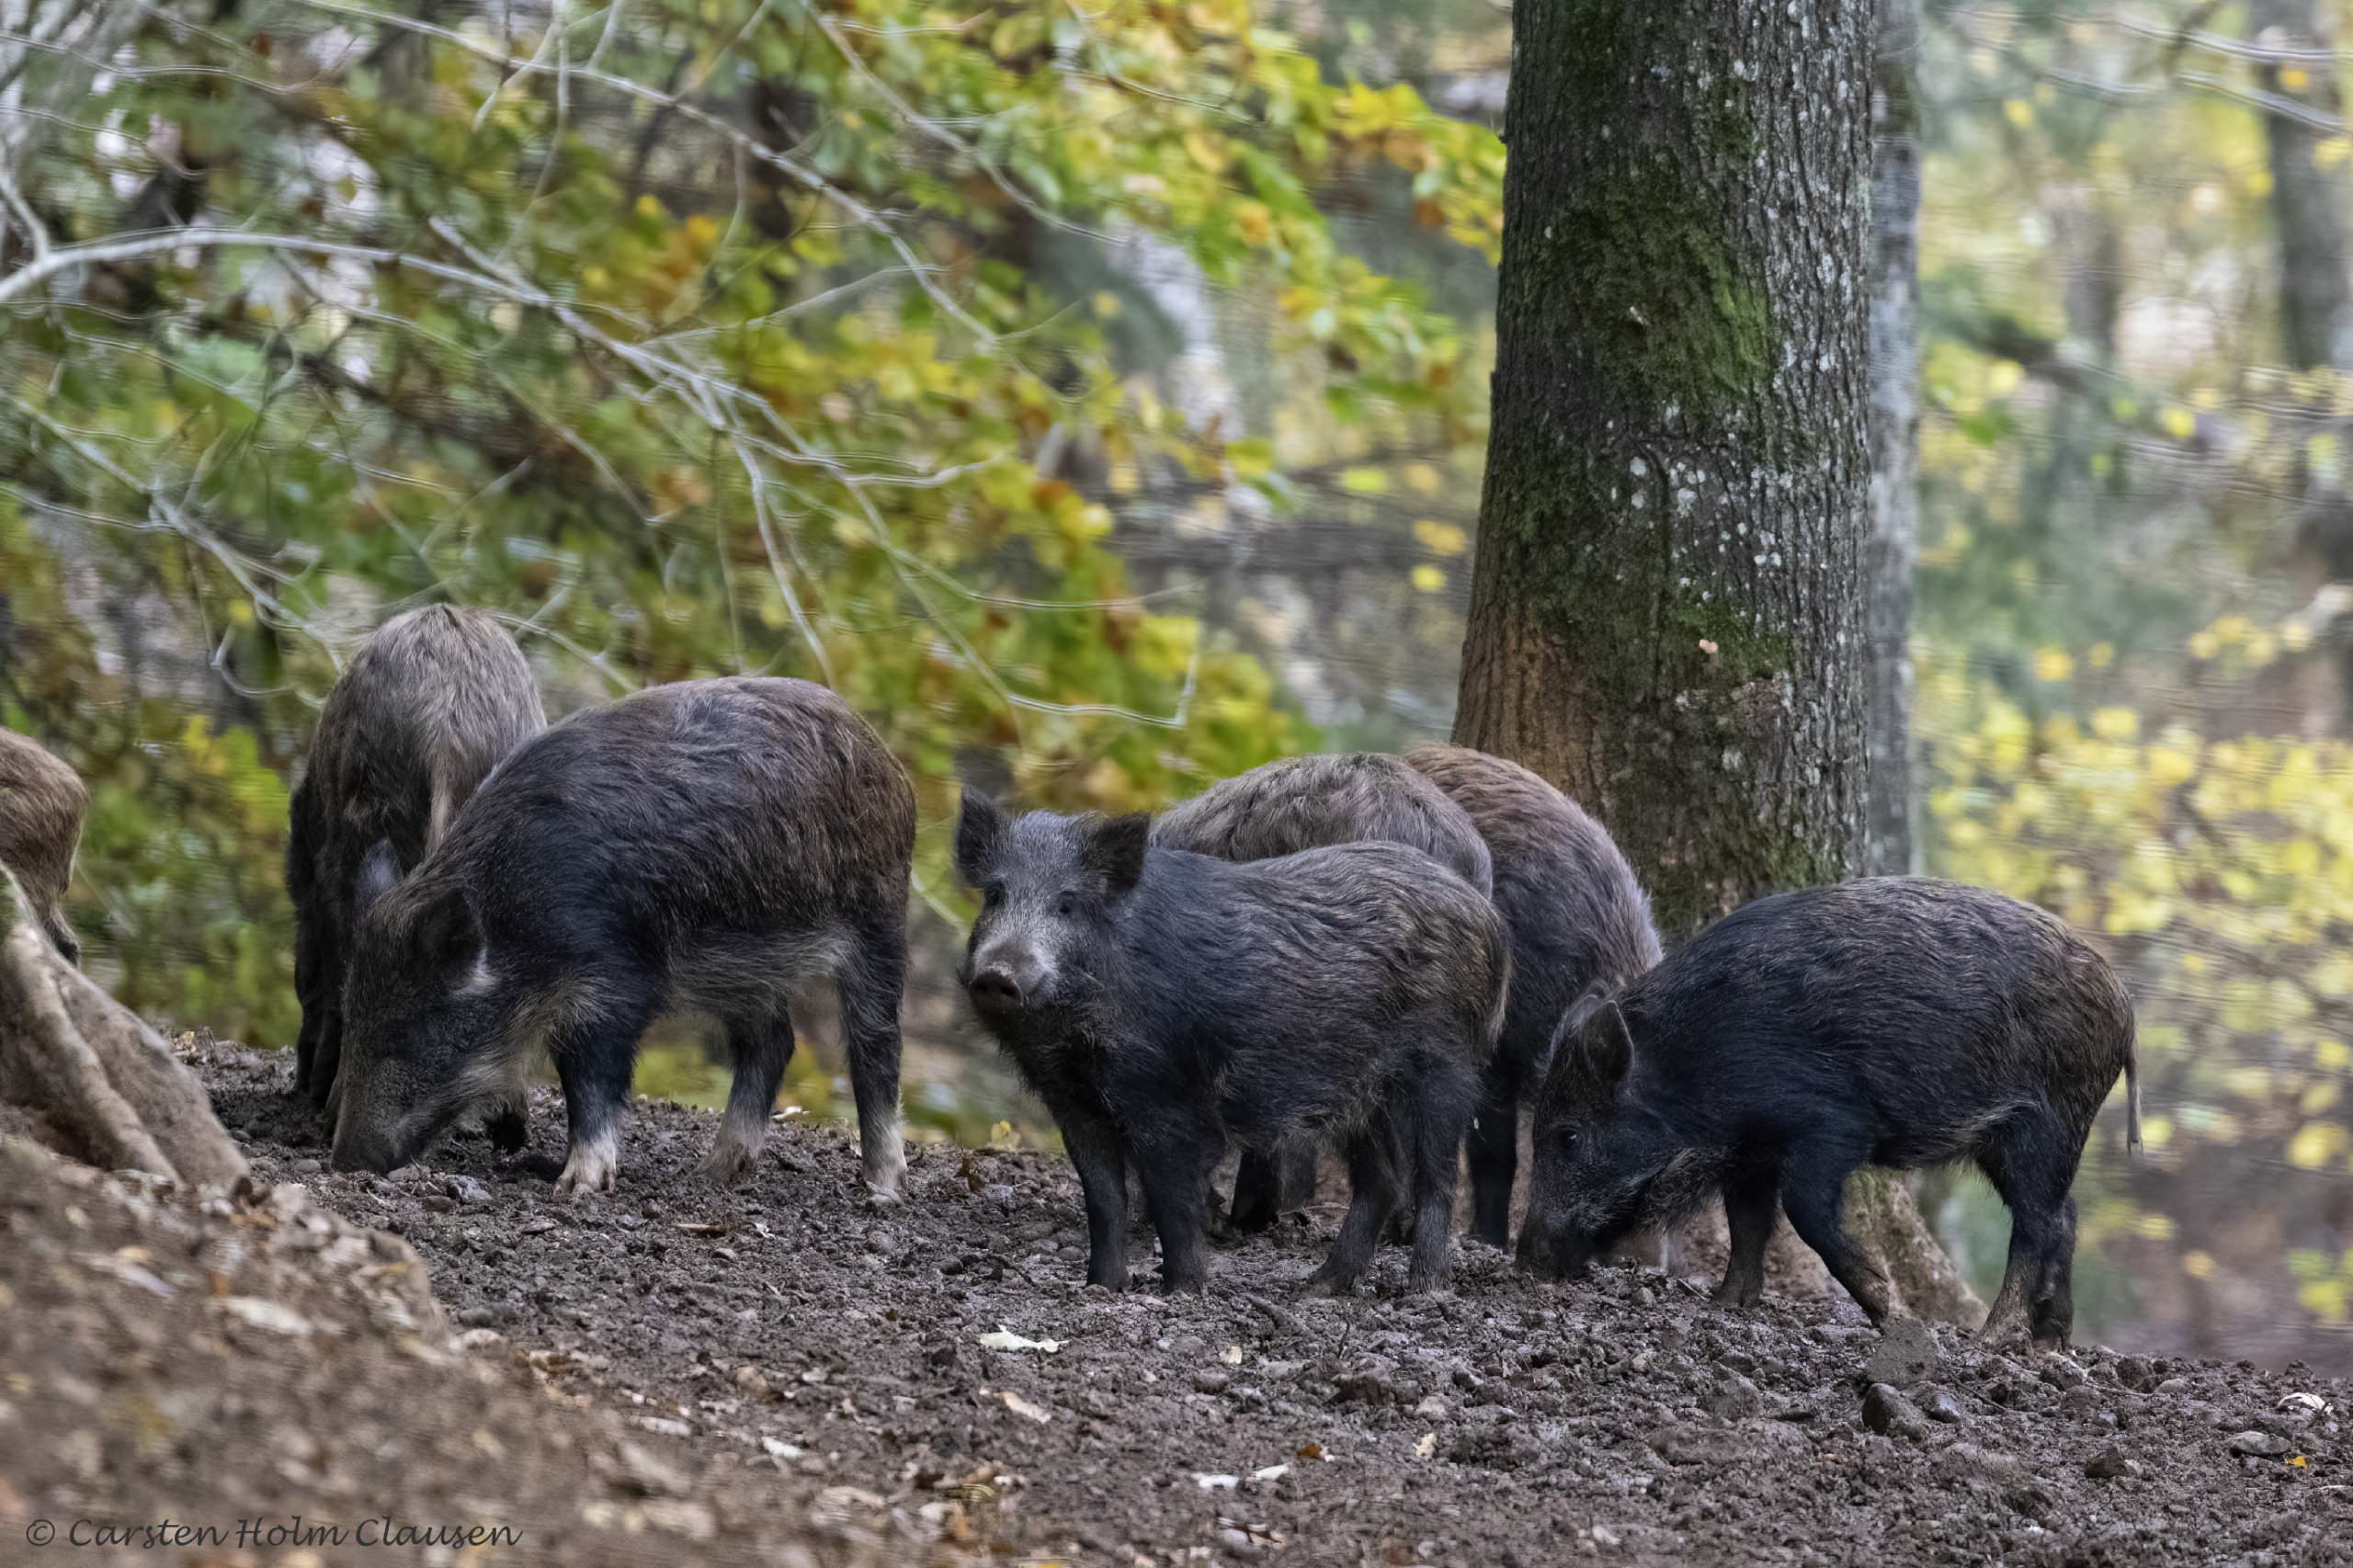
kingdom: Animalia
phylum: Chordata
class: Mammalia
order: Artiodactyla
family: Suidae
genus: Sus
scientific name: Sus scrofa
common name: Vildsvin
